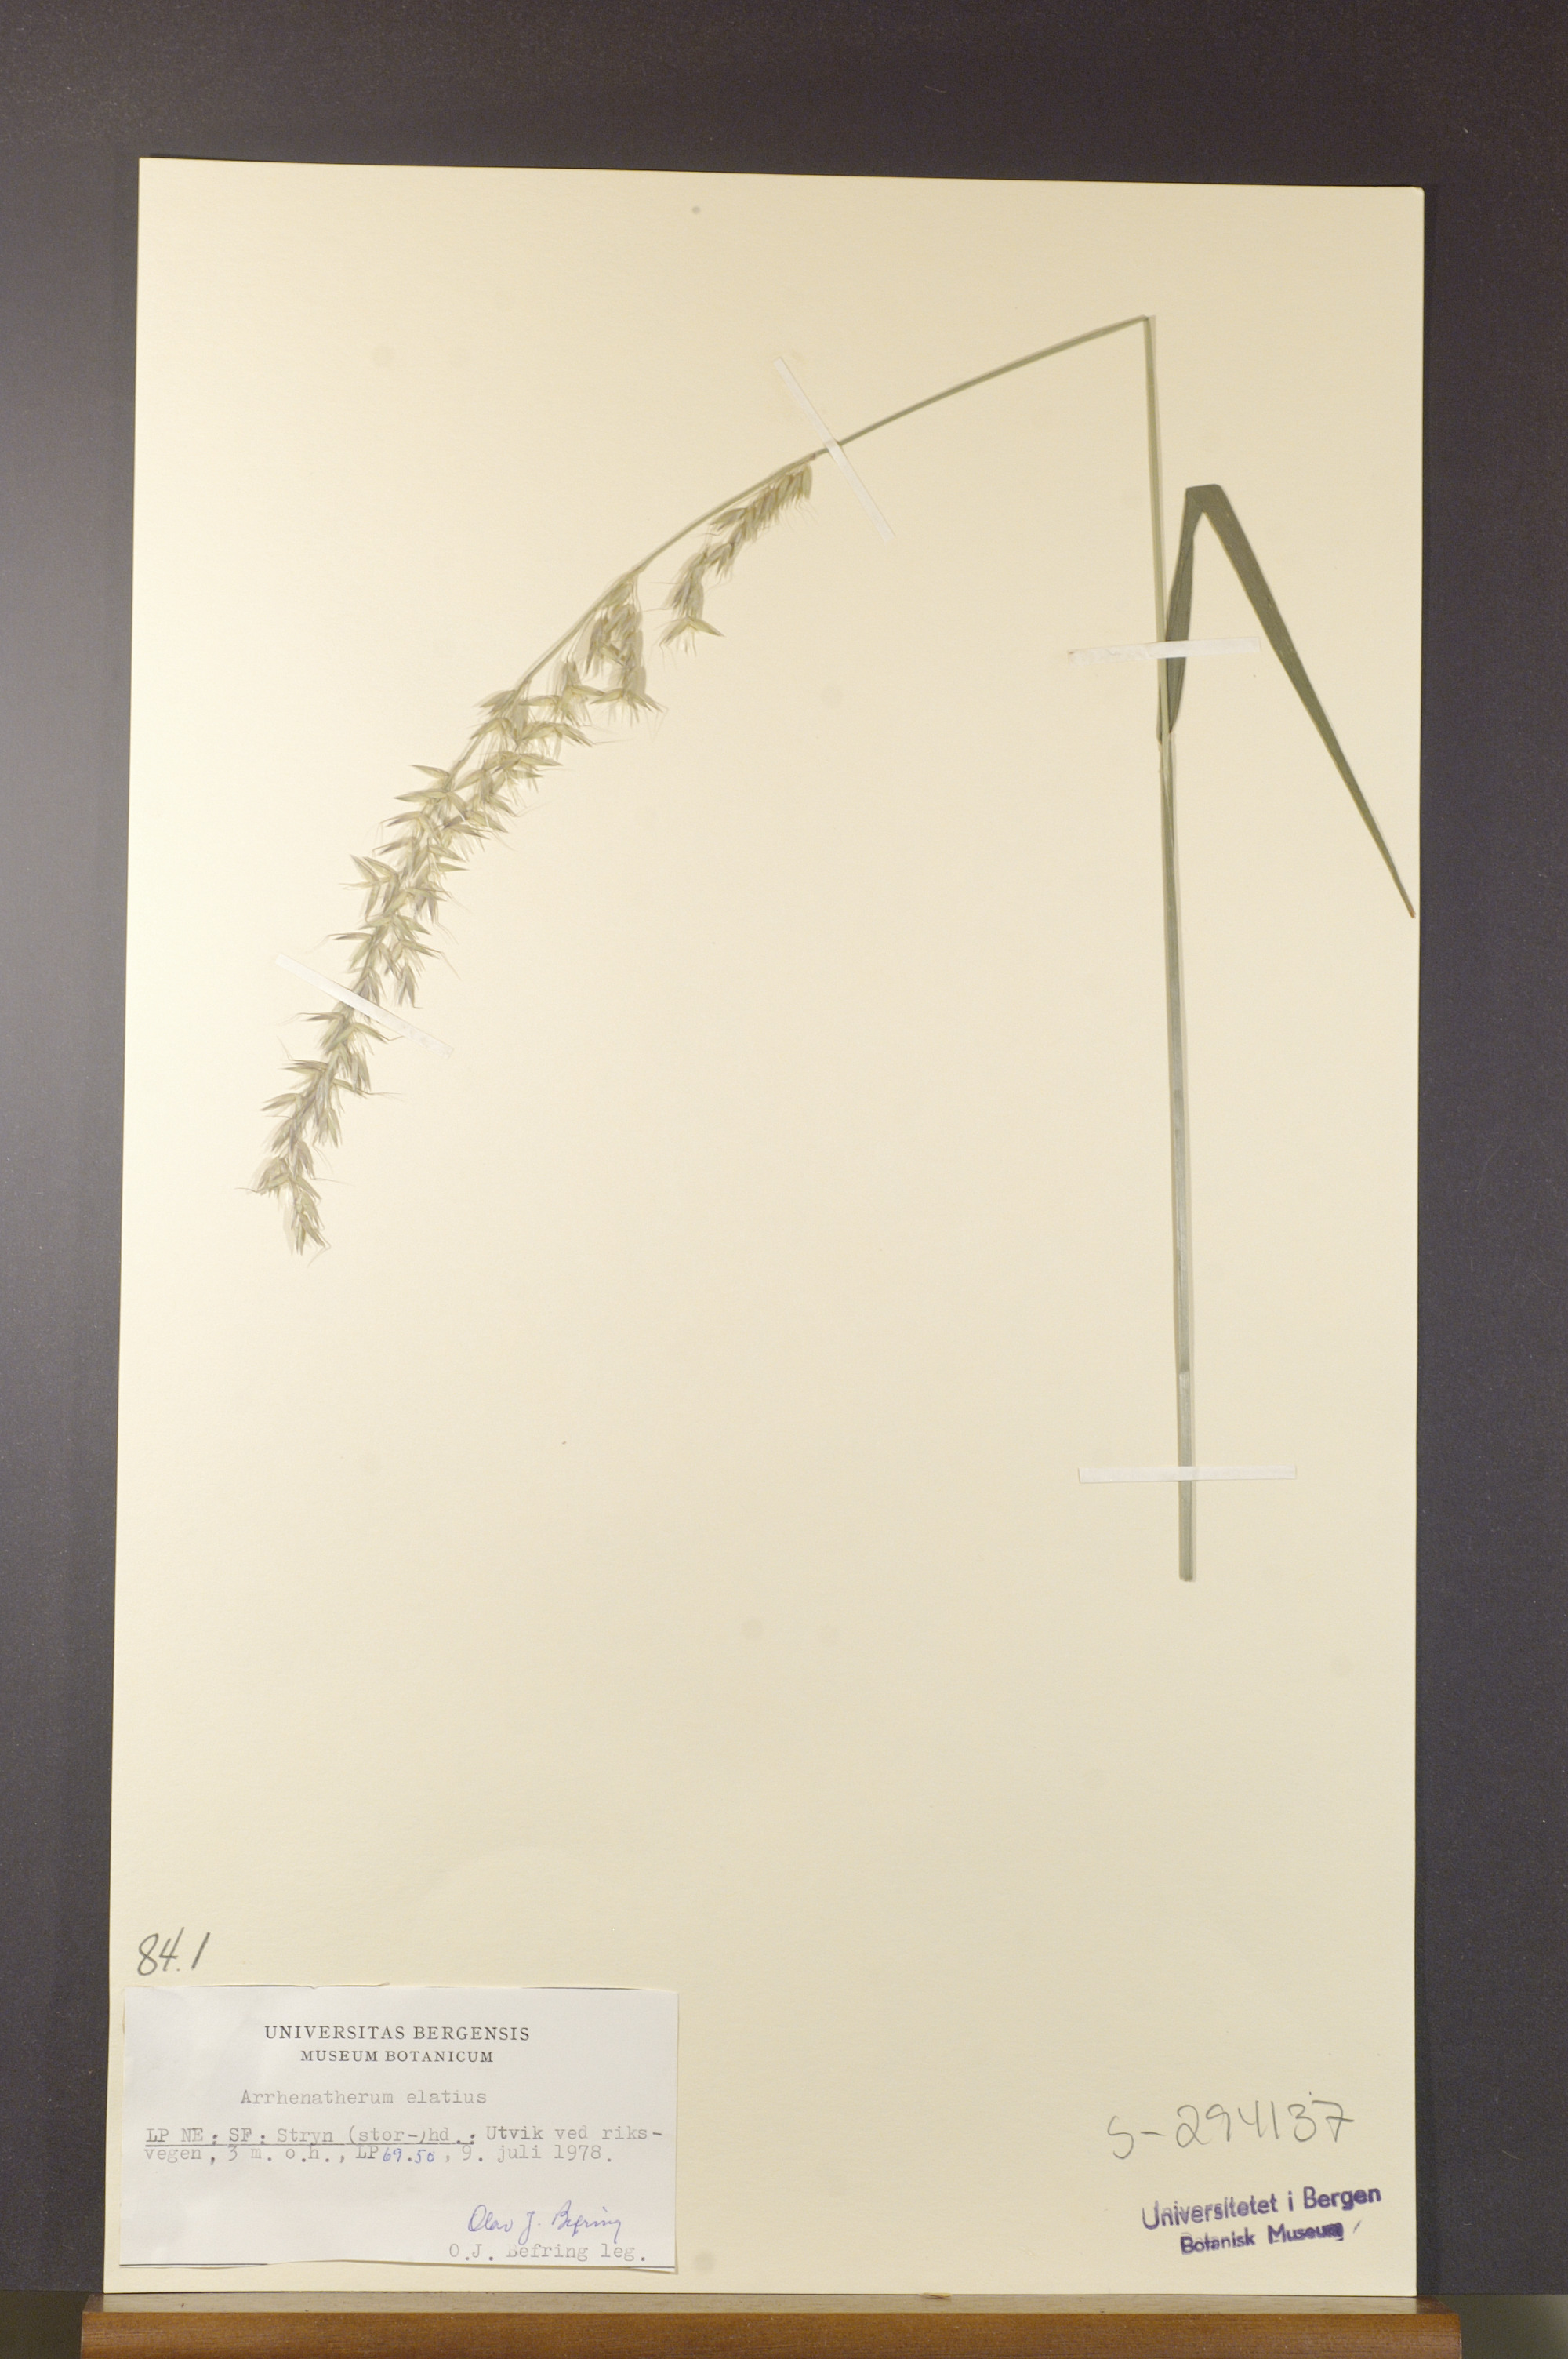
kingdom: Plantae
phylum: Tracheophyta
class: Liliopsida
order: Poales
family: Poaceae
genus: Arrhenatherum
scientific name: Arrhenatherum elatius
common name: Tall oatgrass
